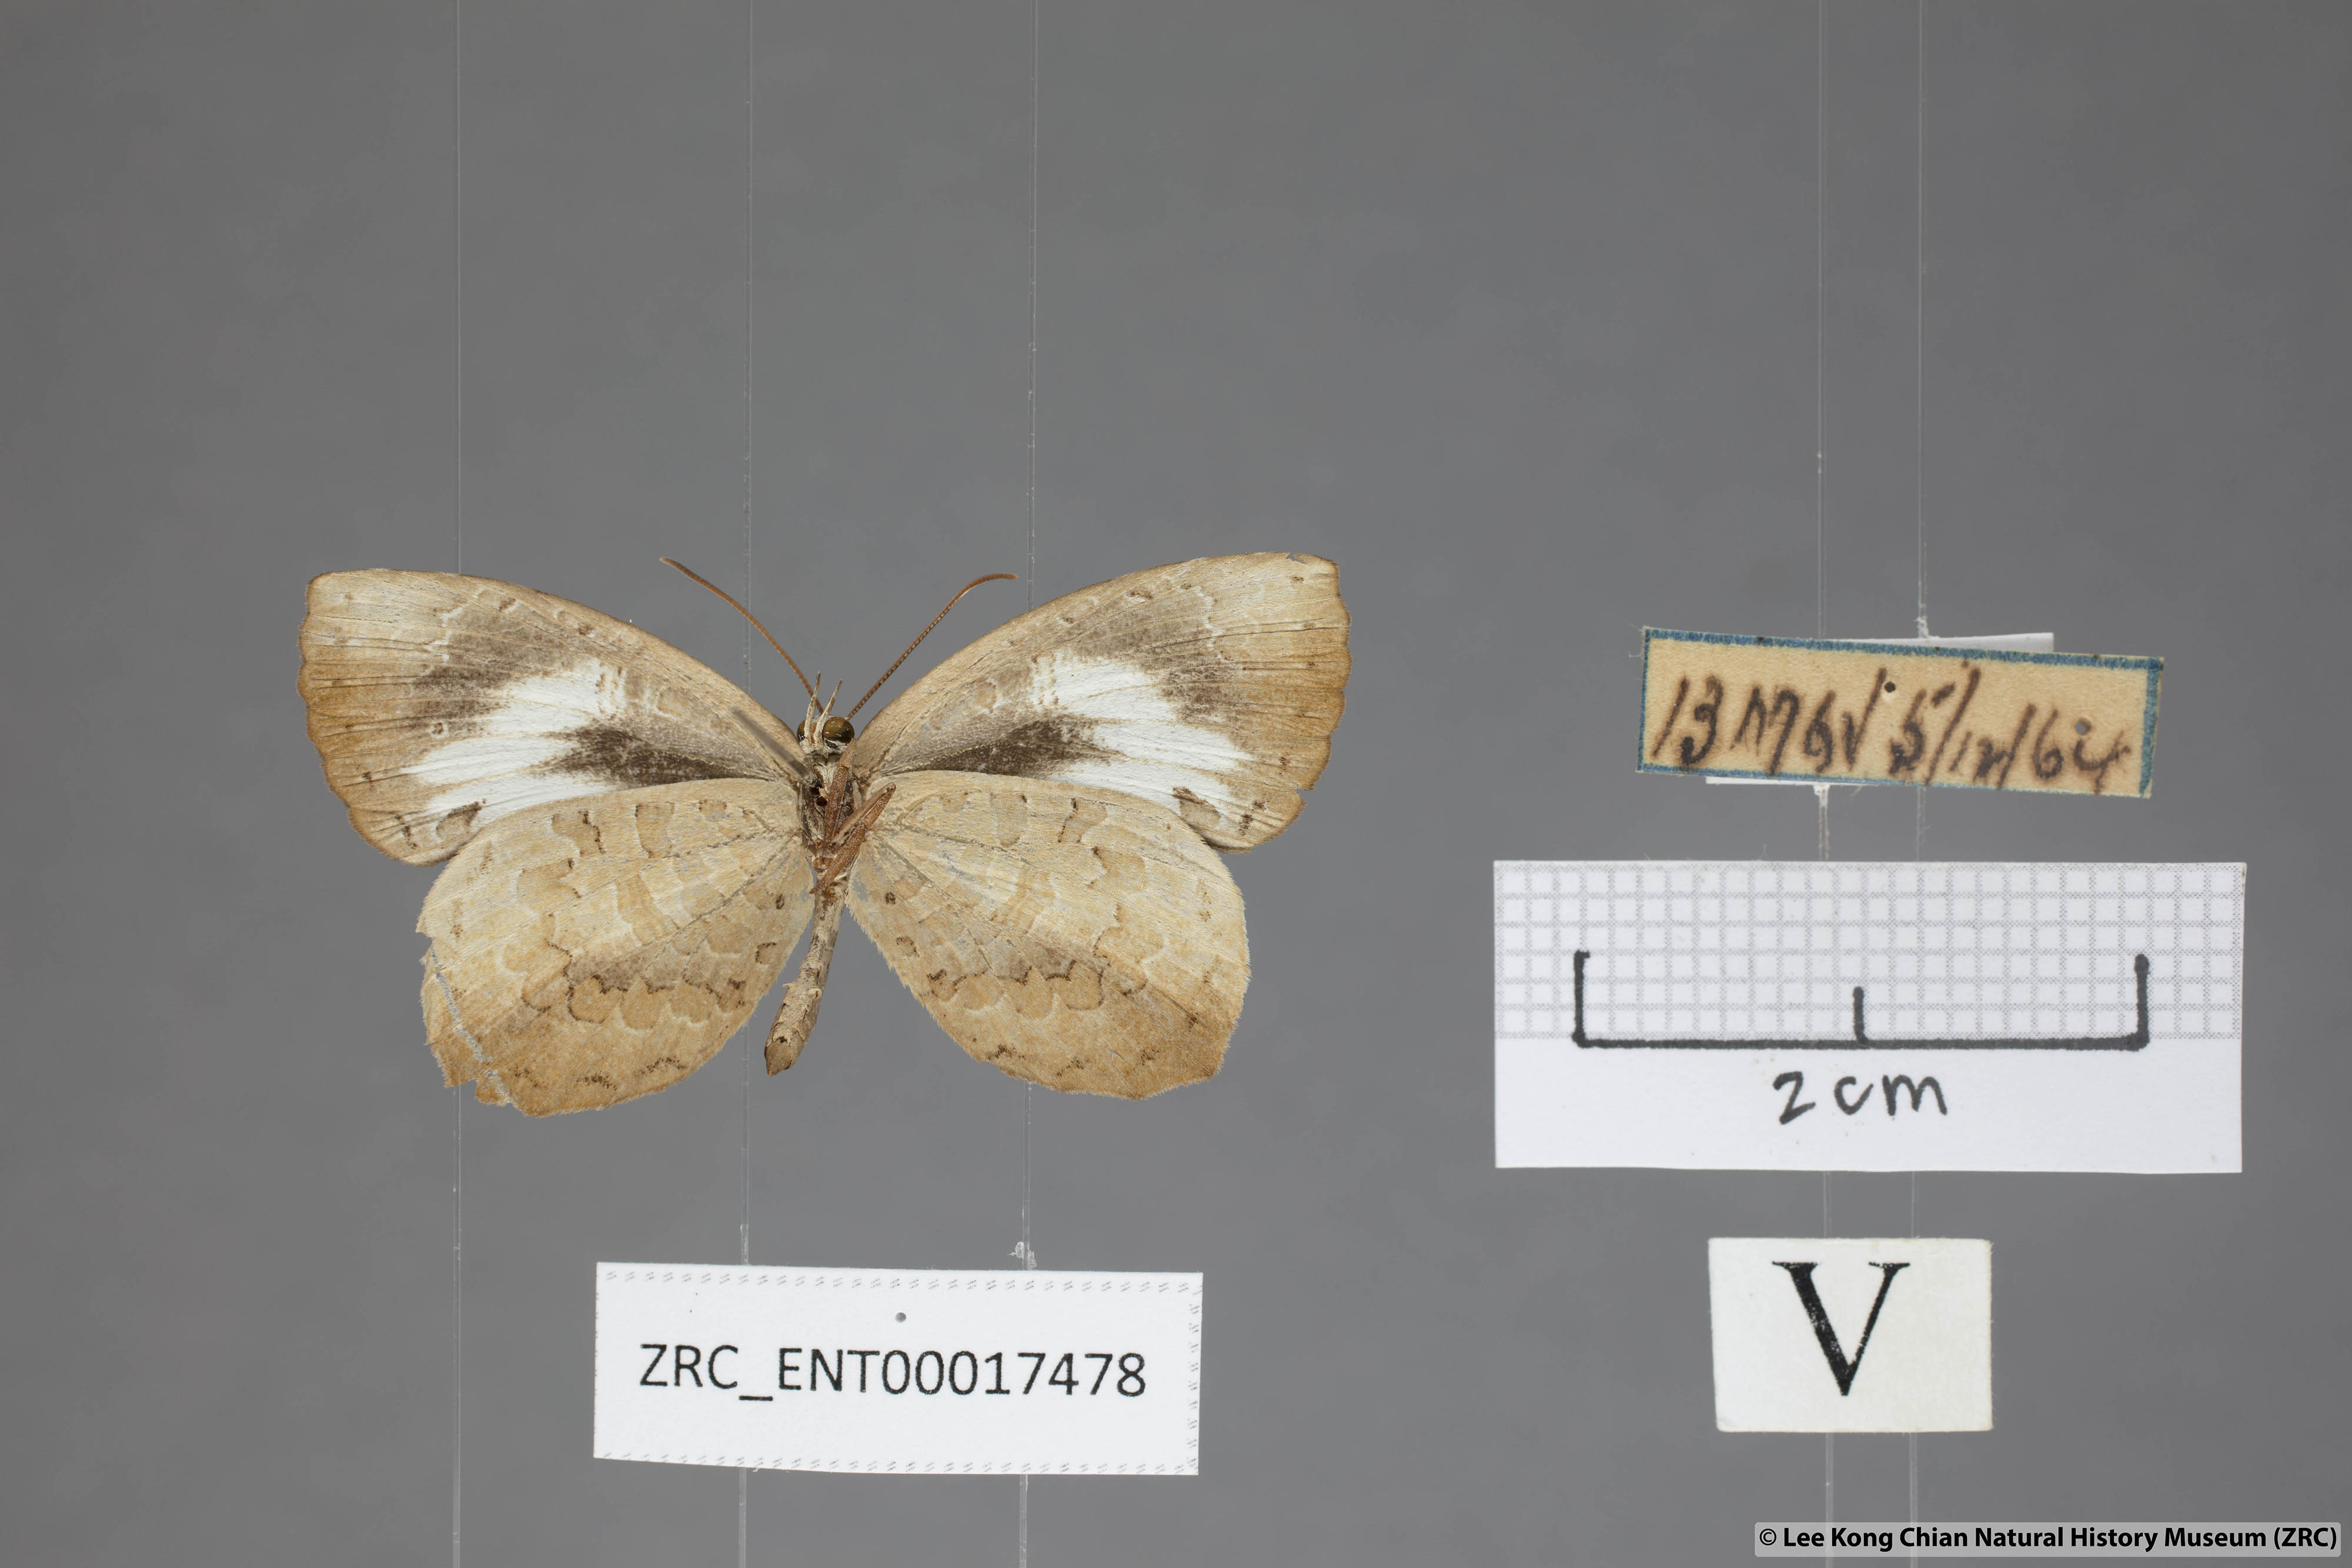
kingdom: Animalia
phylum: Arthropoda
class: Insecta
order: Lepidoptera
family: Lycaenidae
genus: Miletus
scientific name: Miletus symethus
